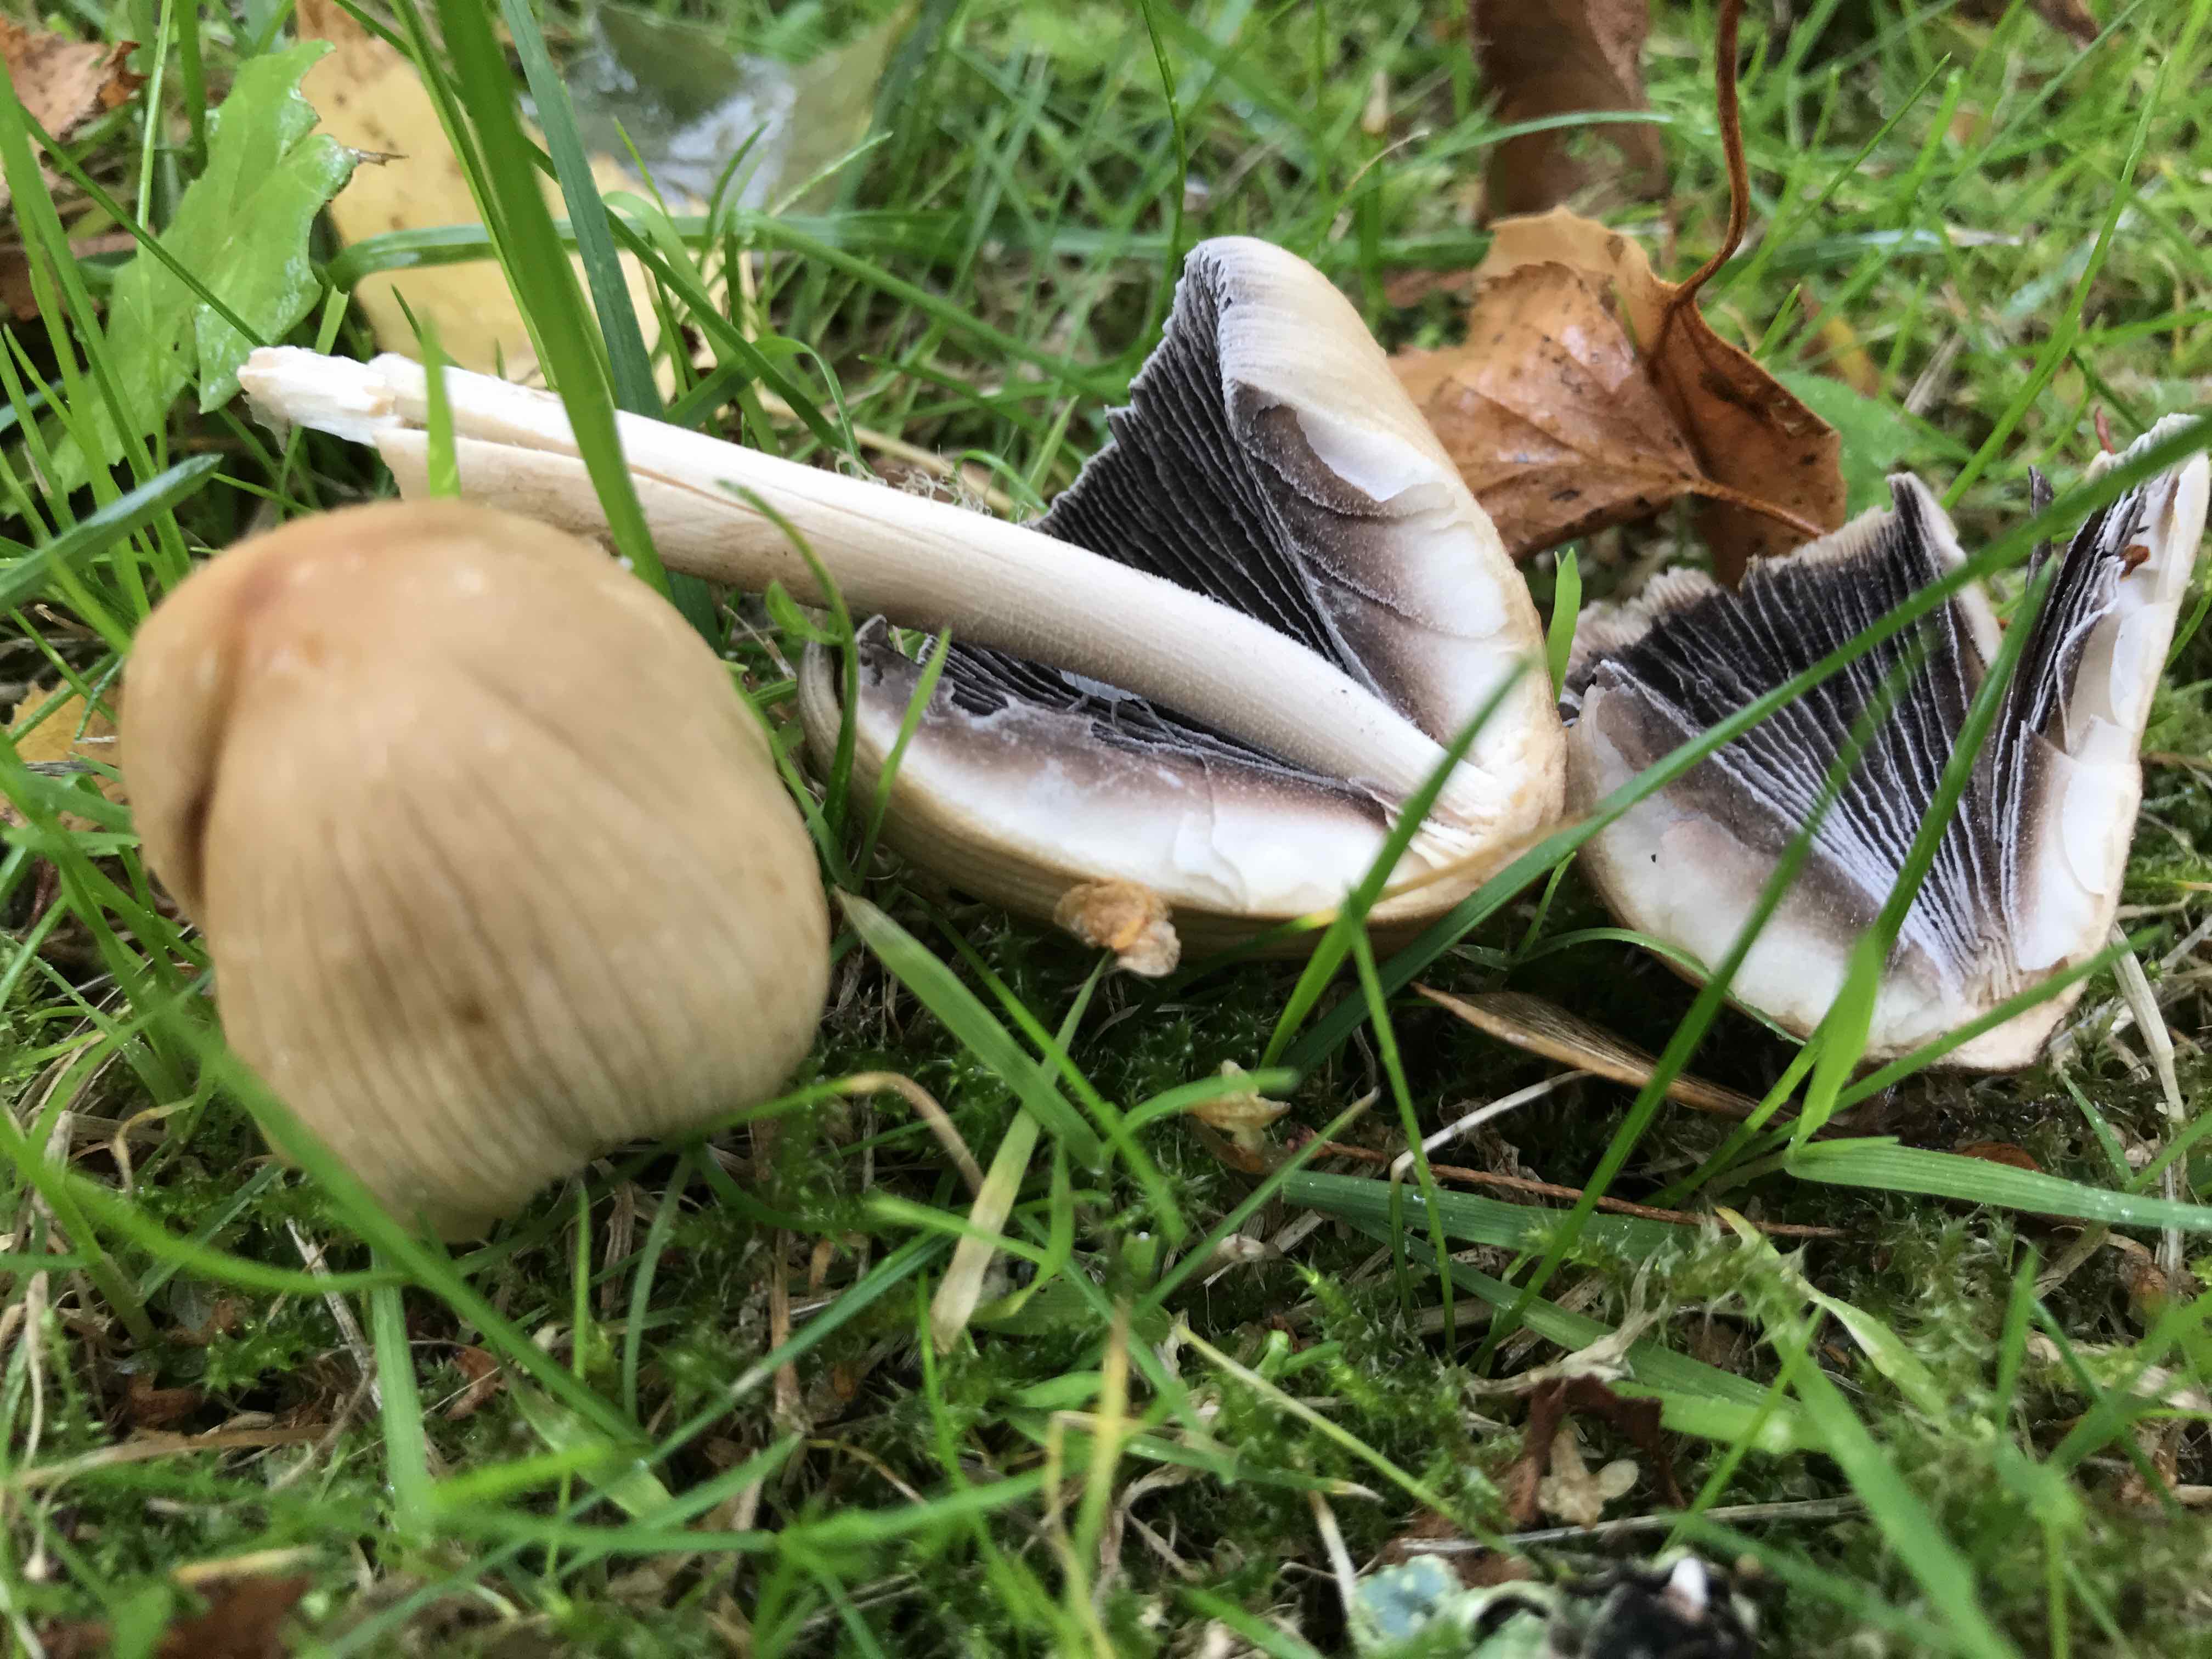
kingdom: Fungi
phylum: Basidiomycota
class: Agaricomycetes
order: Agaricales
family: Psathyrellaceae
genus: Coprinellus
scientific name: Coprinellus micaceus
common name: glimmer-blækhat
